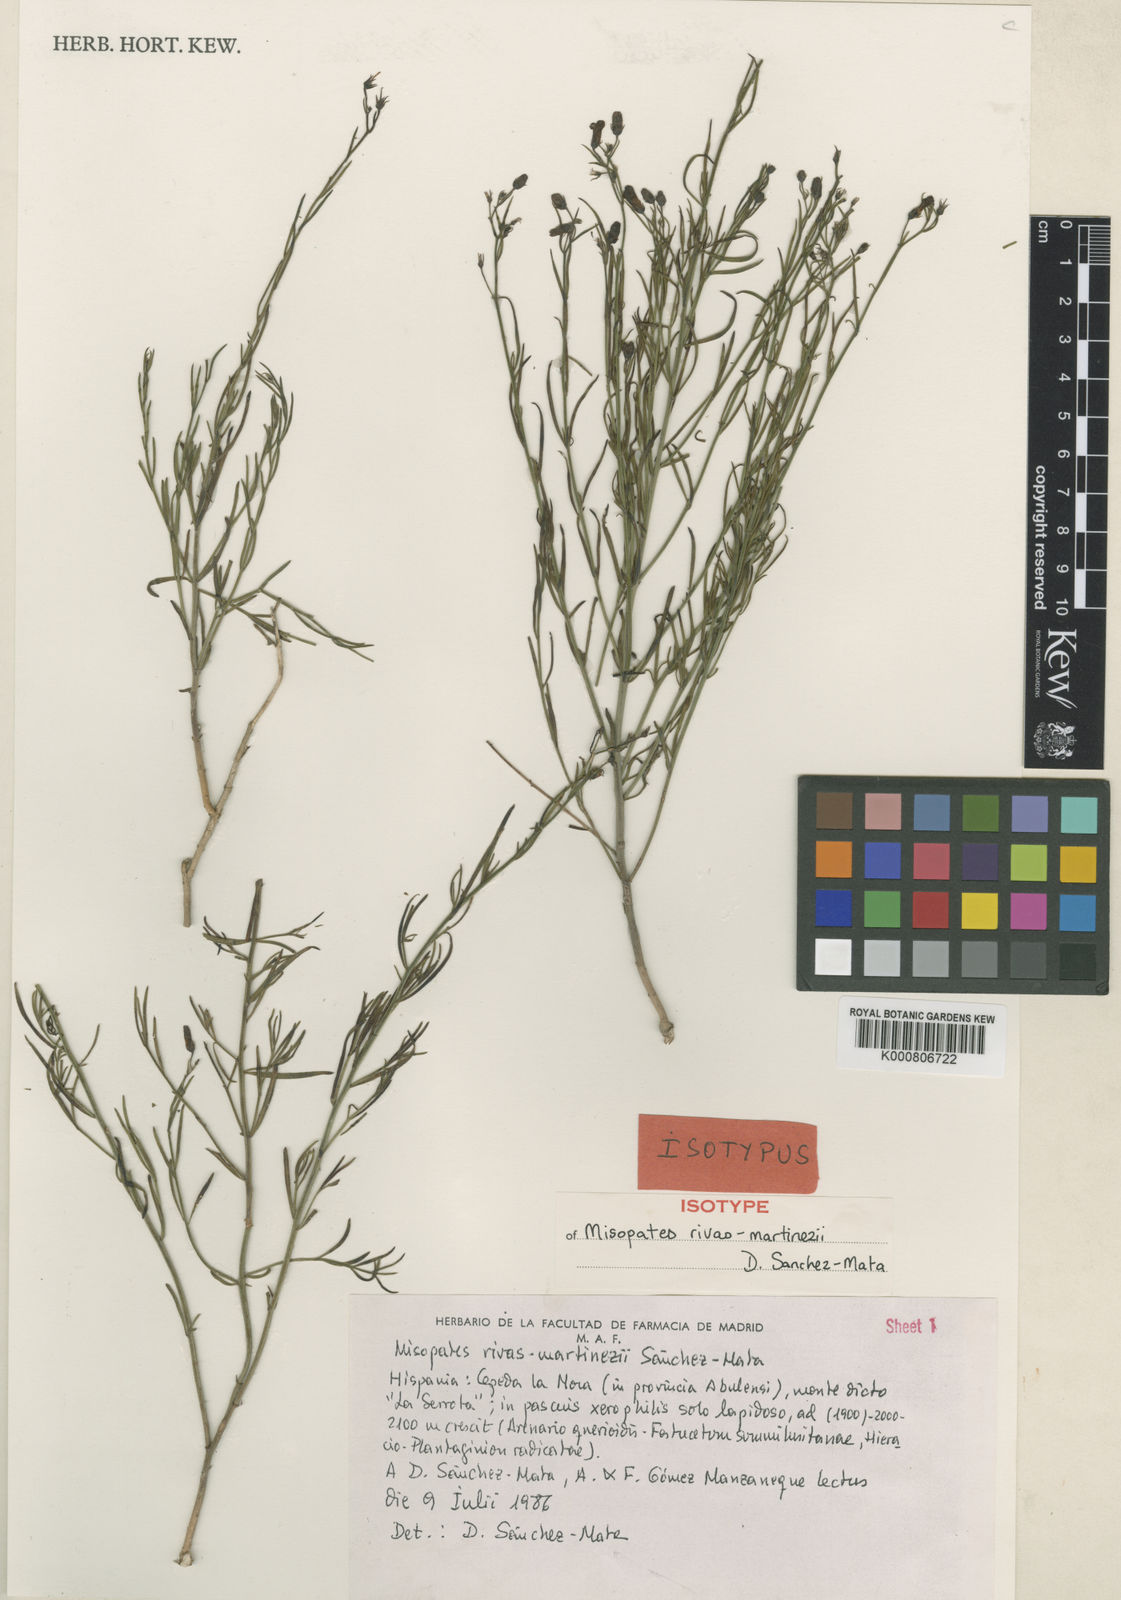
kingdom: Plantae
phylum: Tracheophyta
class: Magnoliopsida
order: Lamiales
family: Plantaginaceae
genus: Misopates
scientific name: Misopates calycinum
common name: Pale weasel's-snout
